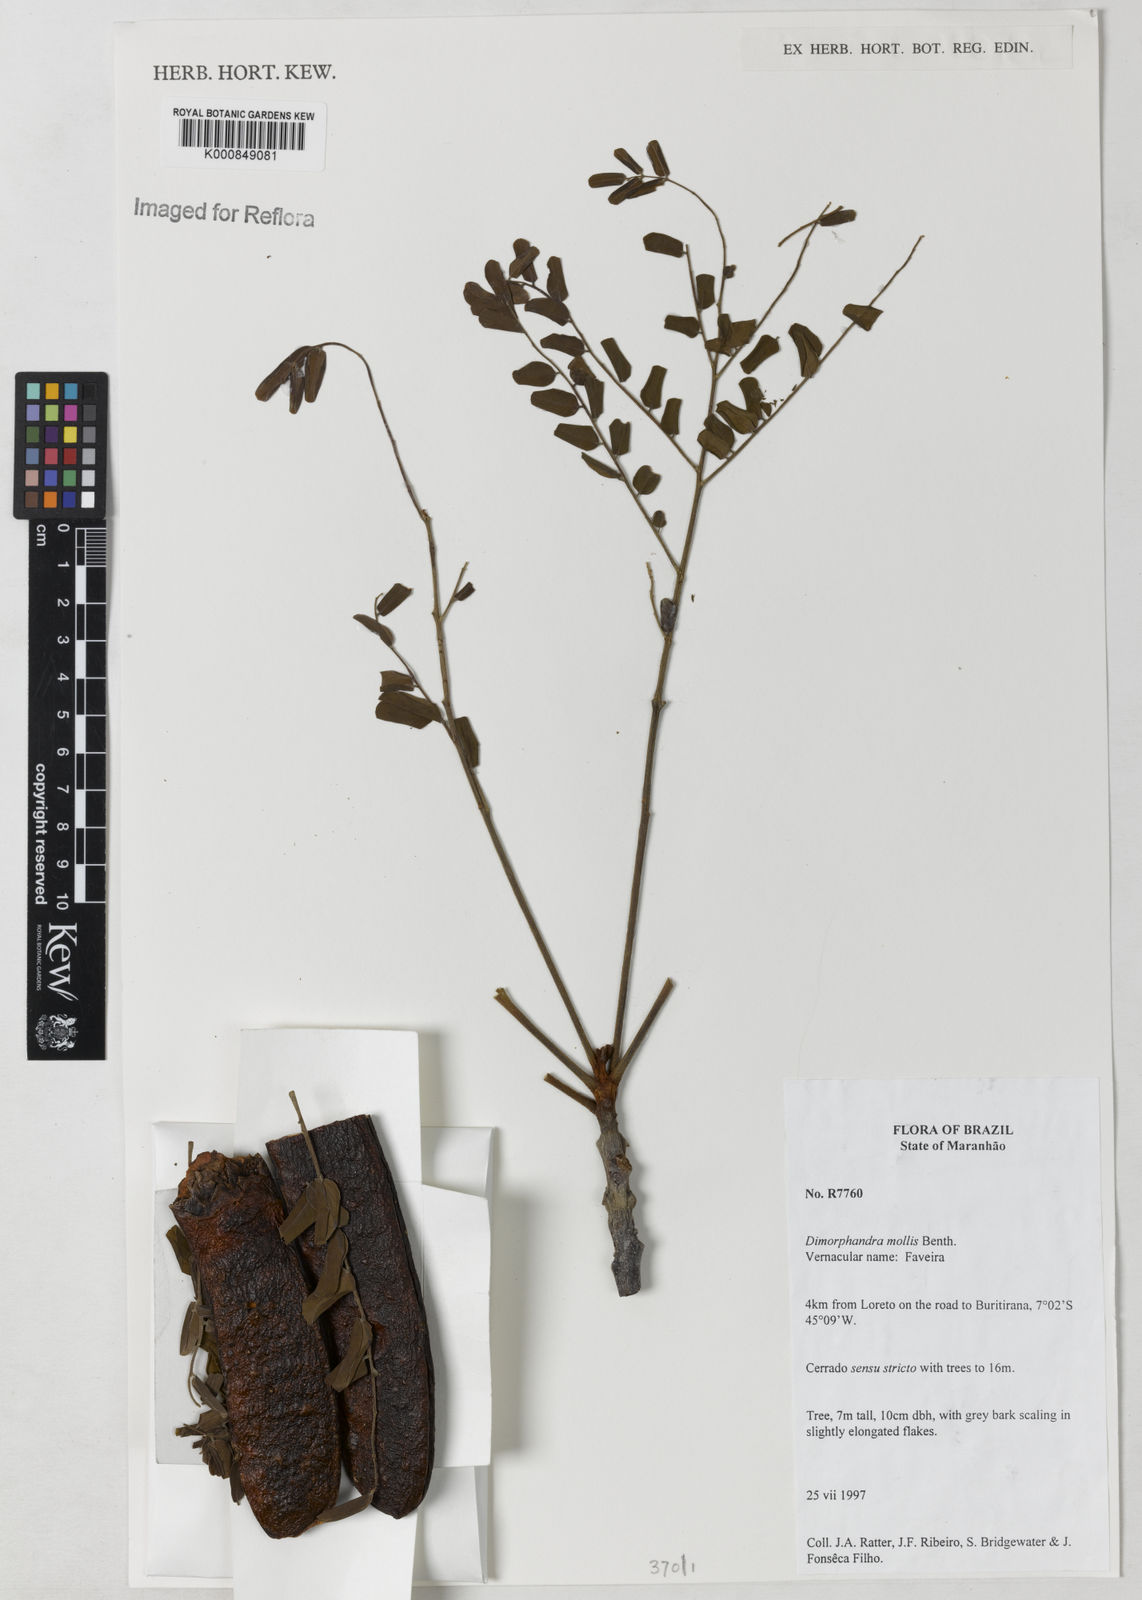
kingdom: Plantae
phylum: Tracheophyta
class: Magnoliopsida
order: Fabales
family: Fabaceae
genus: Dimorphandra
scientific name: Dimorphandra mollis
